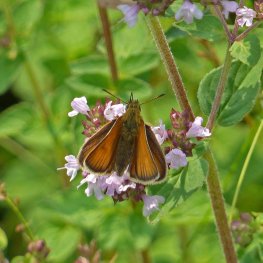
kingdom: Animalia
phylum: Arthropoda
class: Insecta
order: Lepidoptera
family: Hesperiidae
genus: Thymelicus
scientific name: Thymelicus lineola
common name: European Skipper
